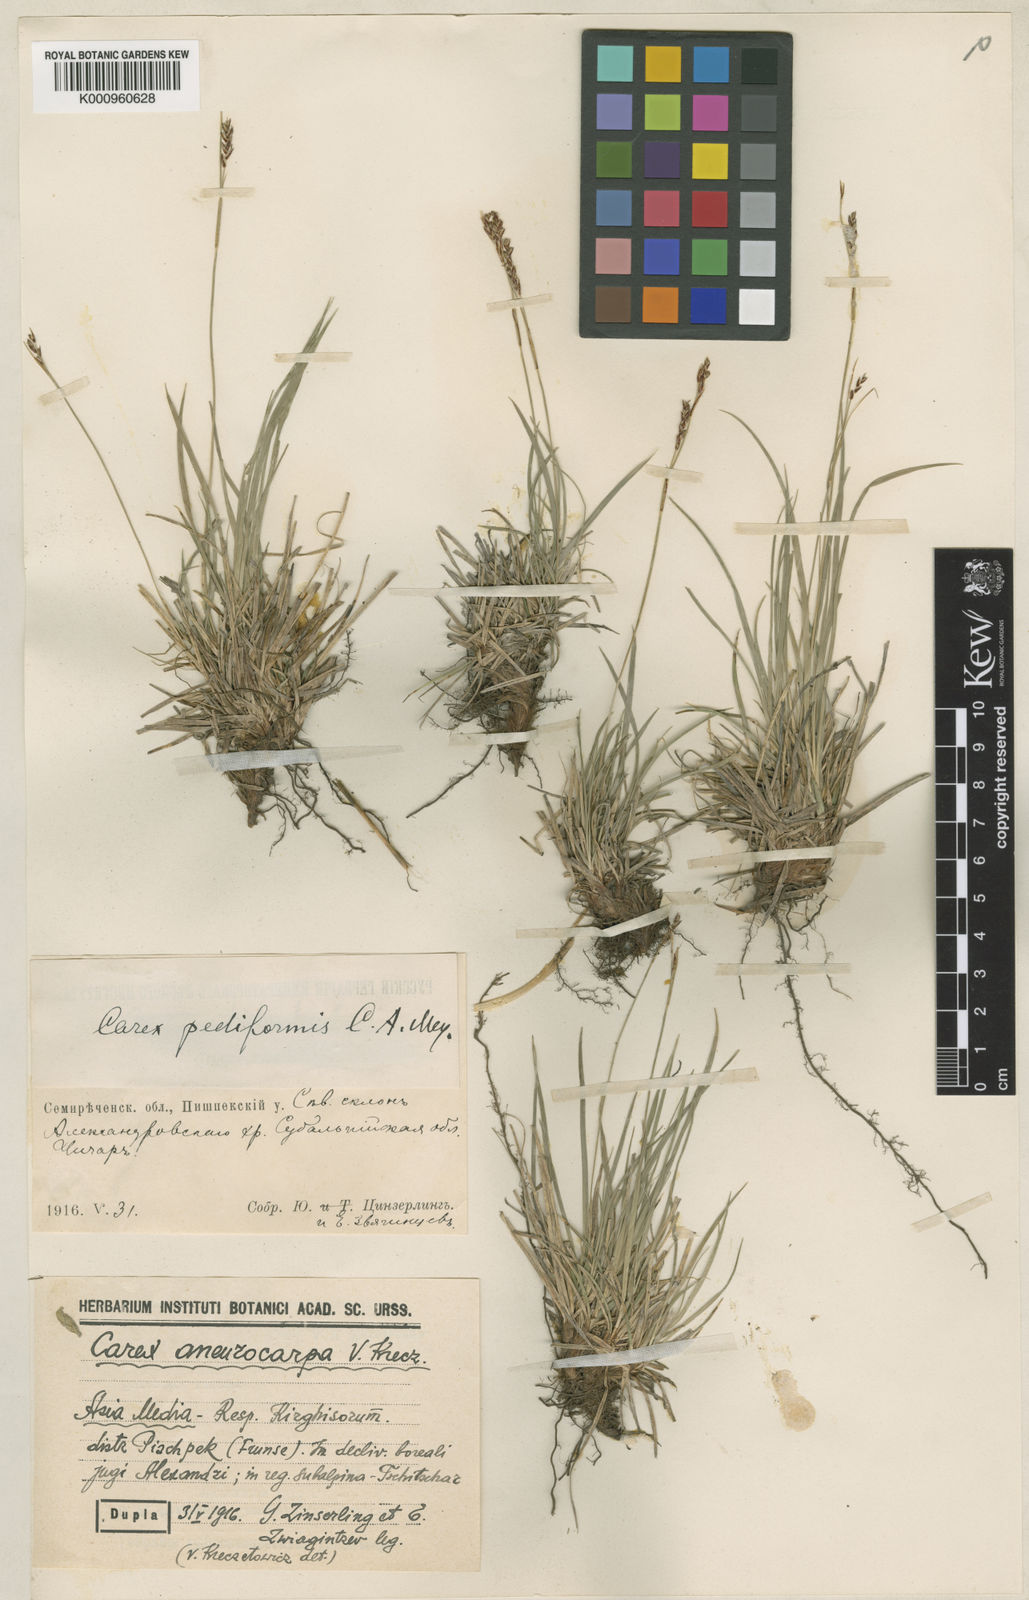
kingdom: Plantae
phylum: Tracheophyta
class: Liliopsida
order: Poales
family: Cyperaceae
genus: Carex
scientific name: Carex pediformis
